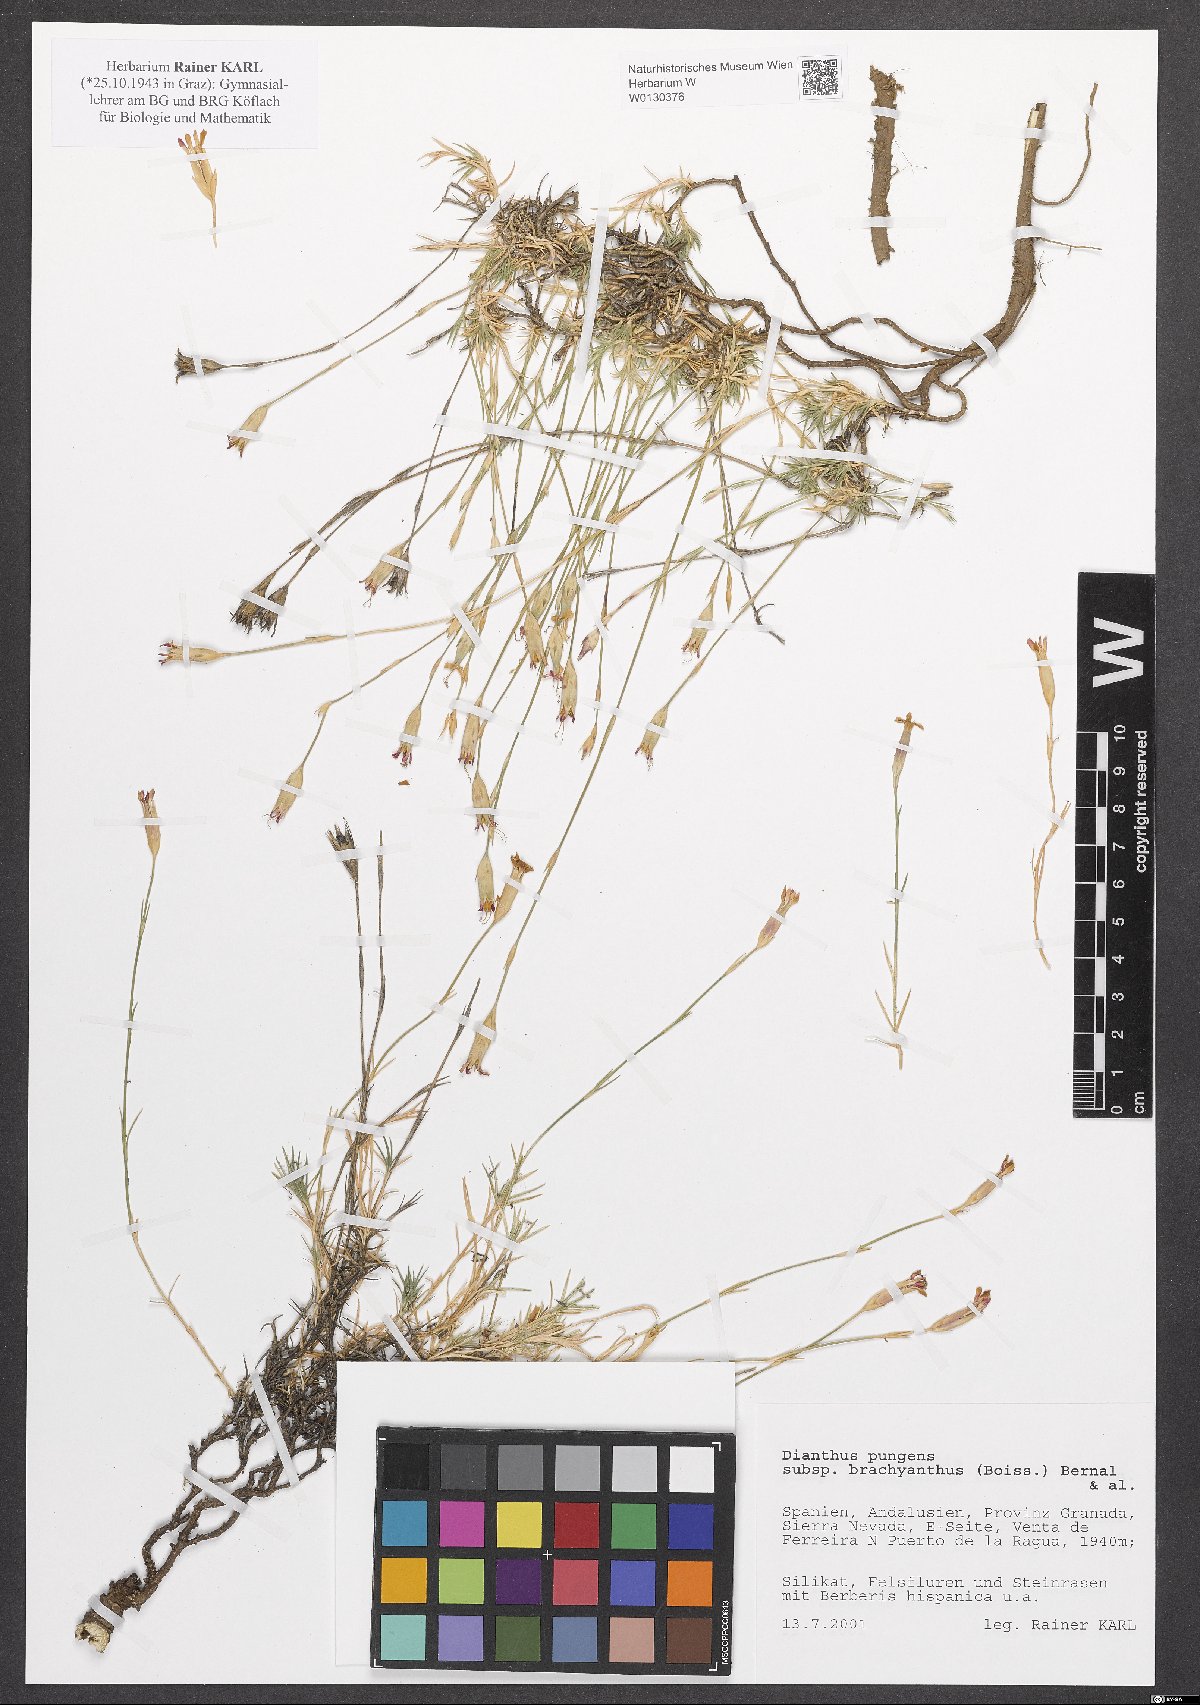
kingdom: Plantae
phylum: Tracheophyta
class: Magnoliopsida
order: Caryophyllales
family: Caryophyllaceae
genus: Dianthus
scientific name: Dianthus pungens
